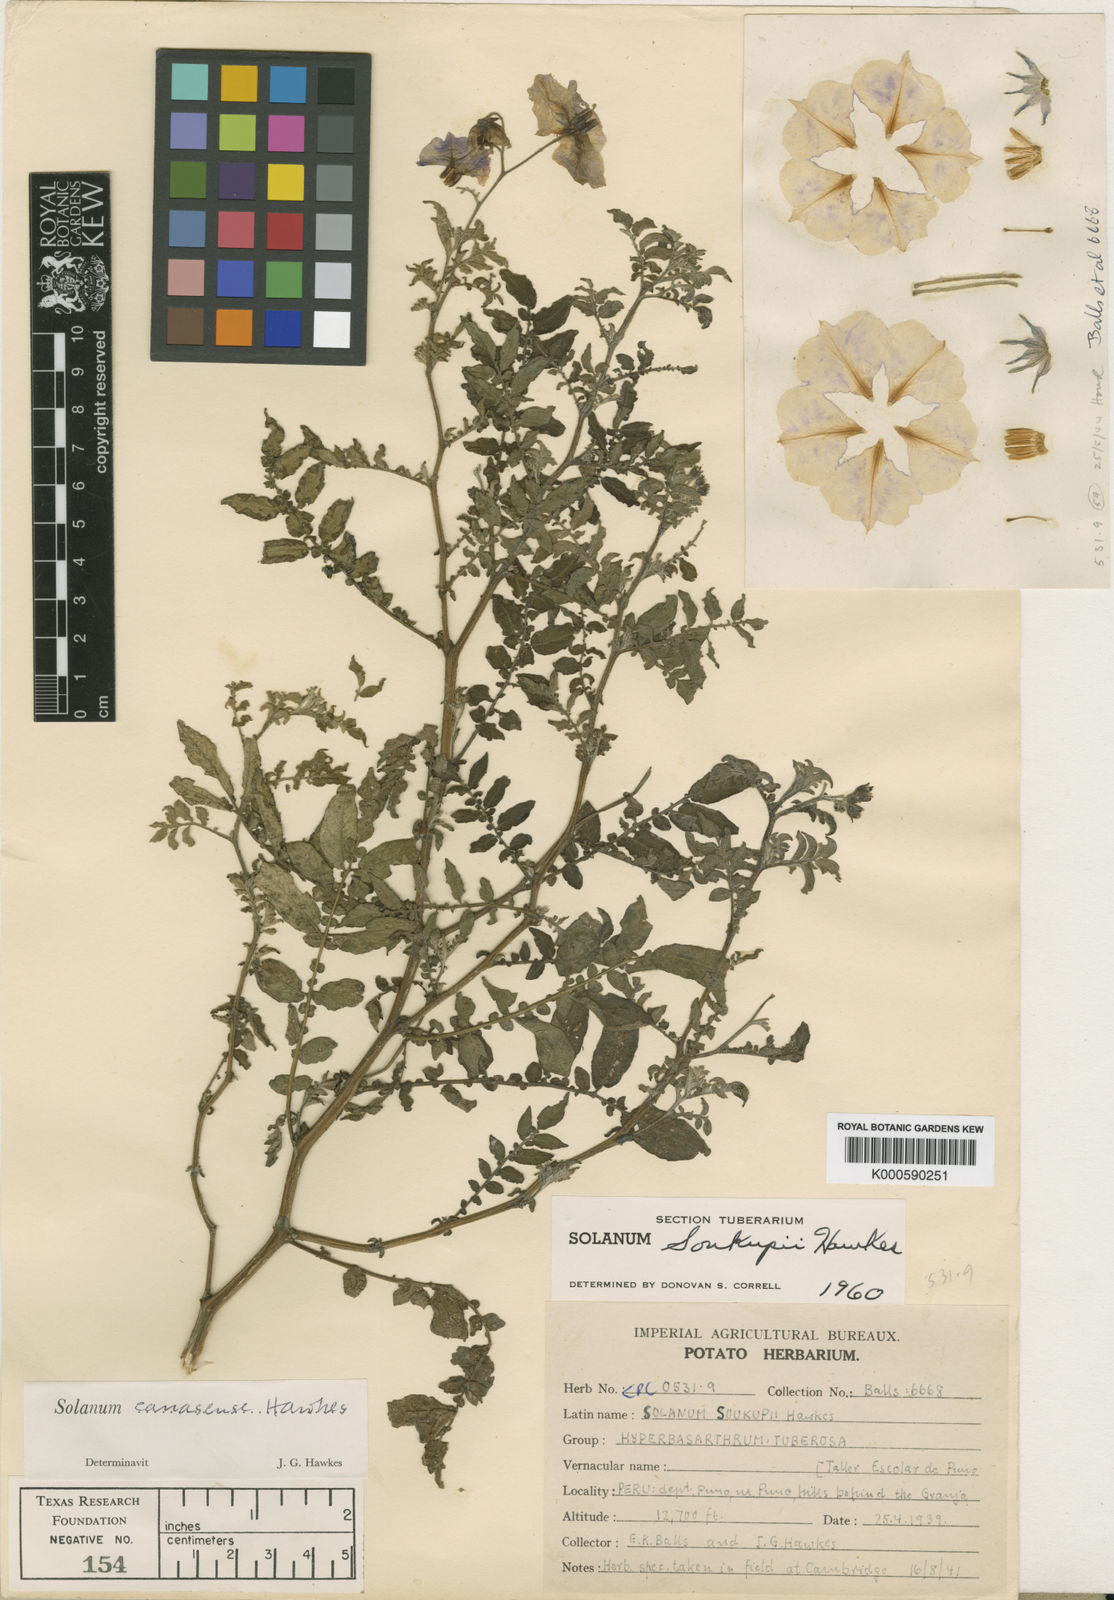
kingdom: Plantae
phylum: Tracheophyta
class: Magnoliopsida
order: Solanales
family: Solanaceae
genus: Solanum
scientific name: Solanum candolleanum
